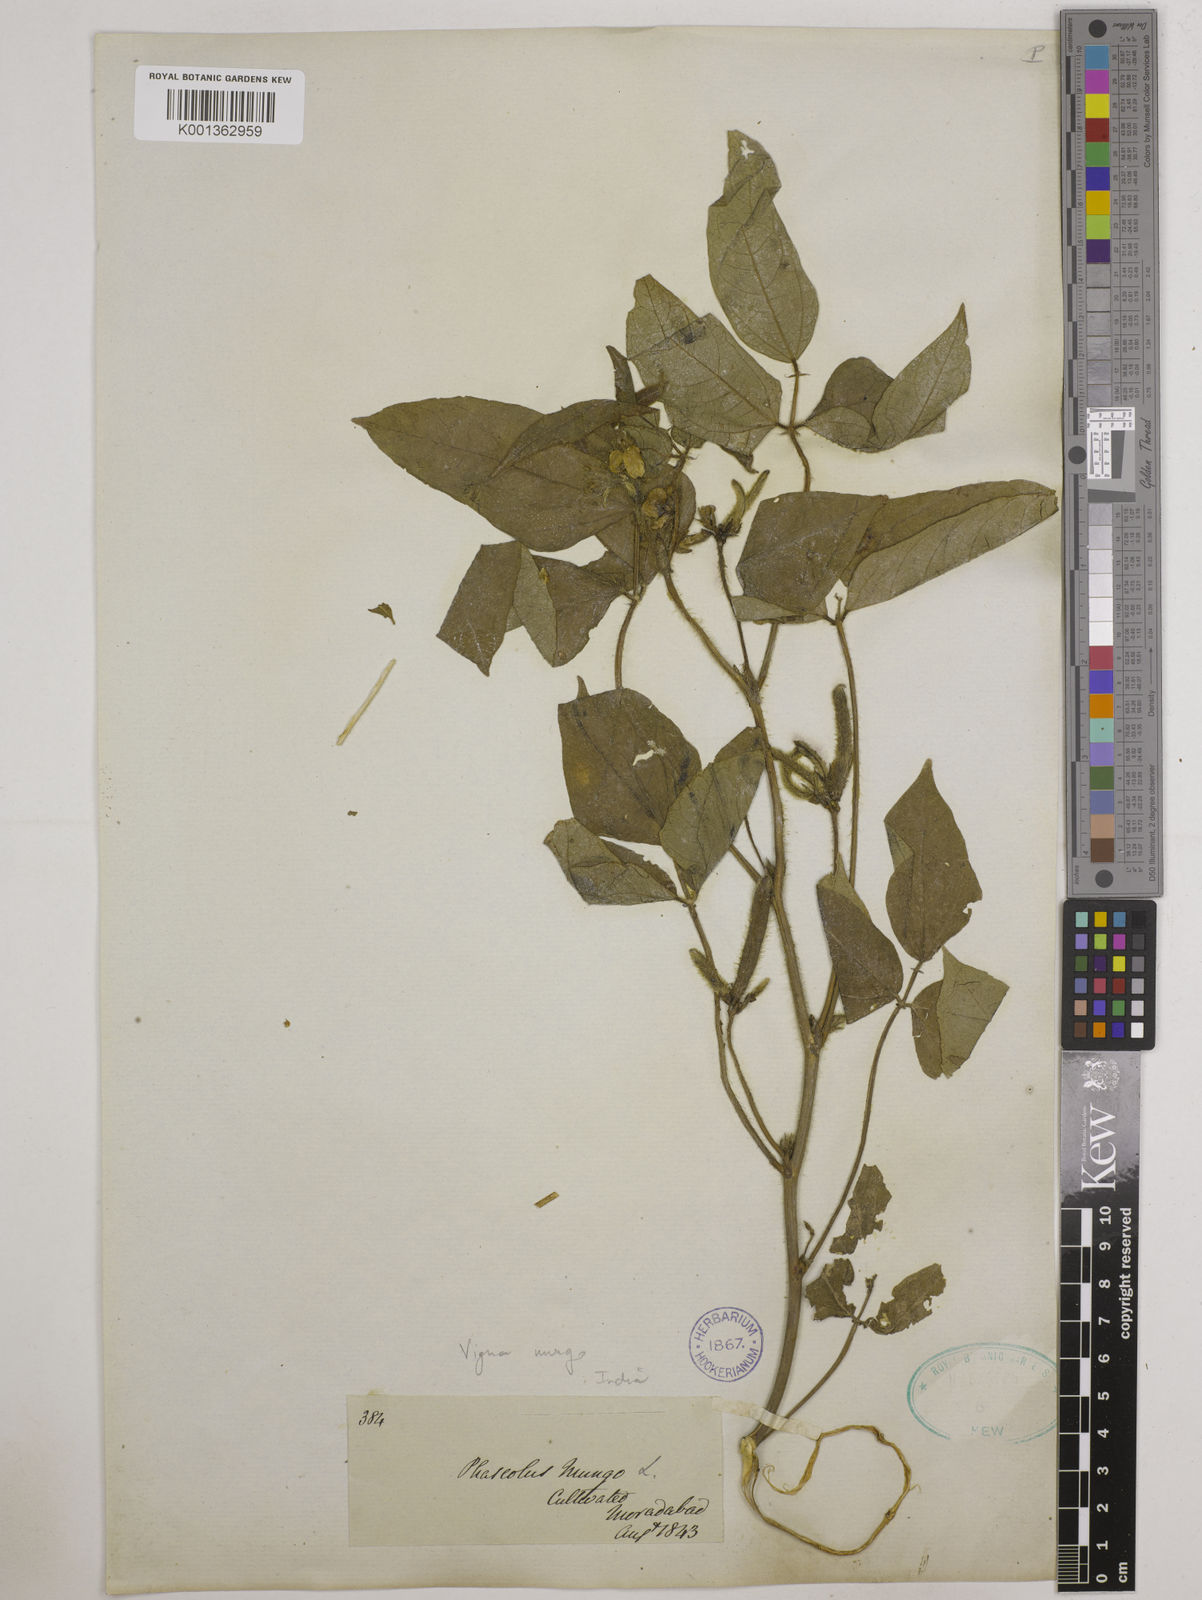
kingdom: Plantae
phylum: Tracheophyta
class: Magnoliopsida
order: Fabales
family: Fabaceae
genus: Vigna
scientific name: Vigna mungo
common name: Black gram
